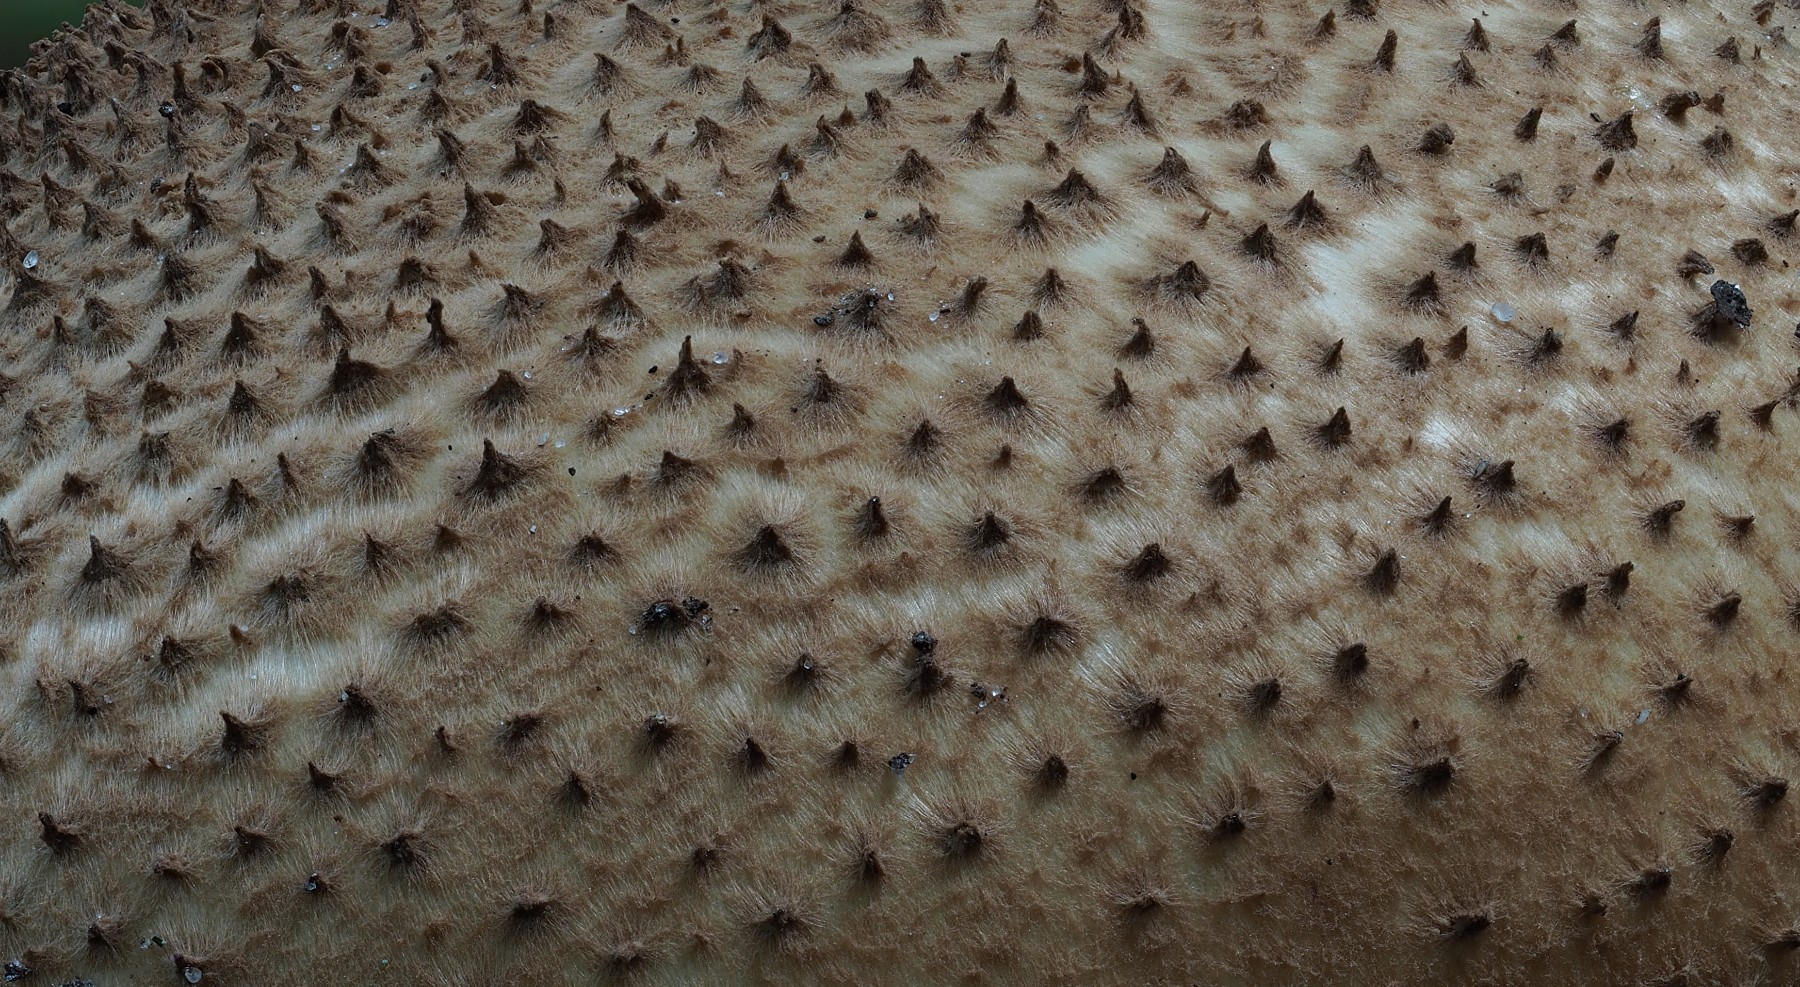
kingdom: Fungi
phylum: Basidiomycota
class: Agaricomycetes
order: Agaricales
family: Agaricaceae
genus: Echinoderma
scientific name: Echinoderma asperum
